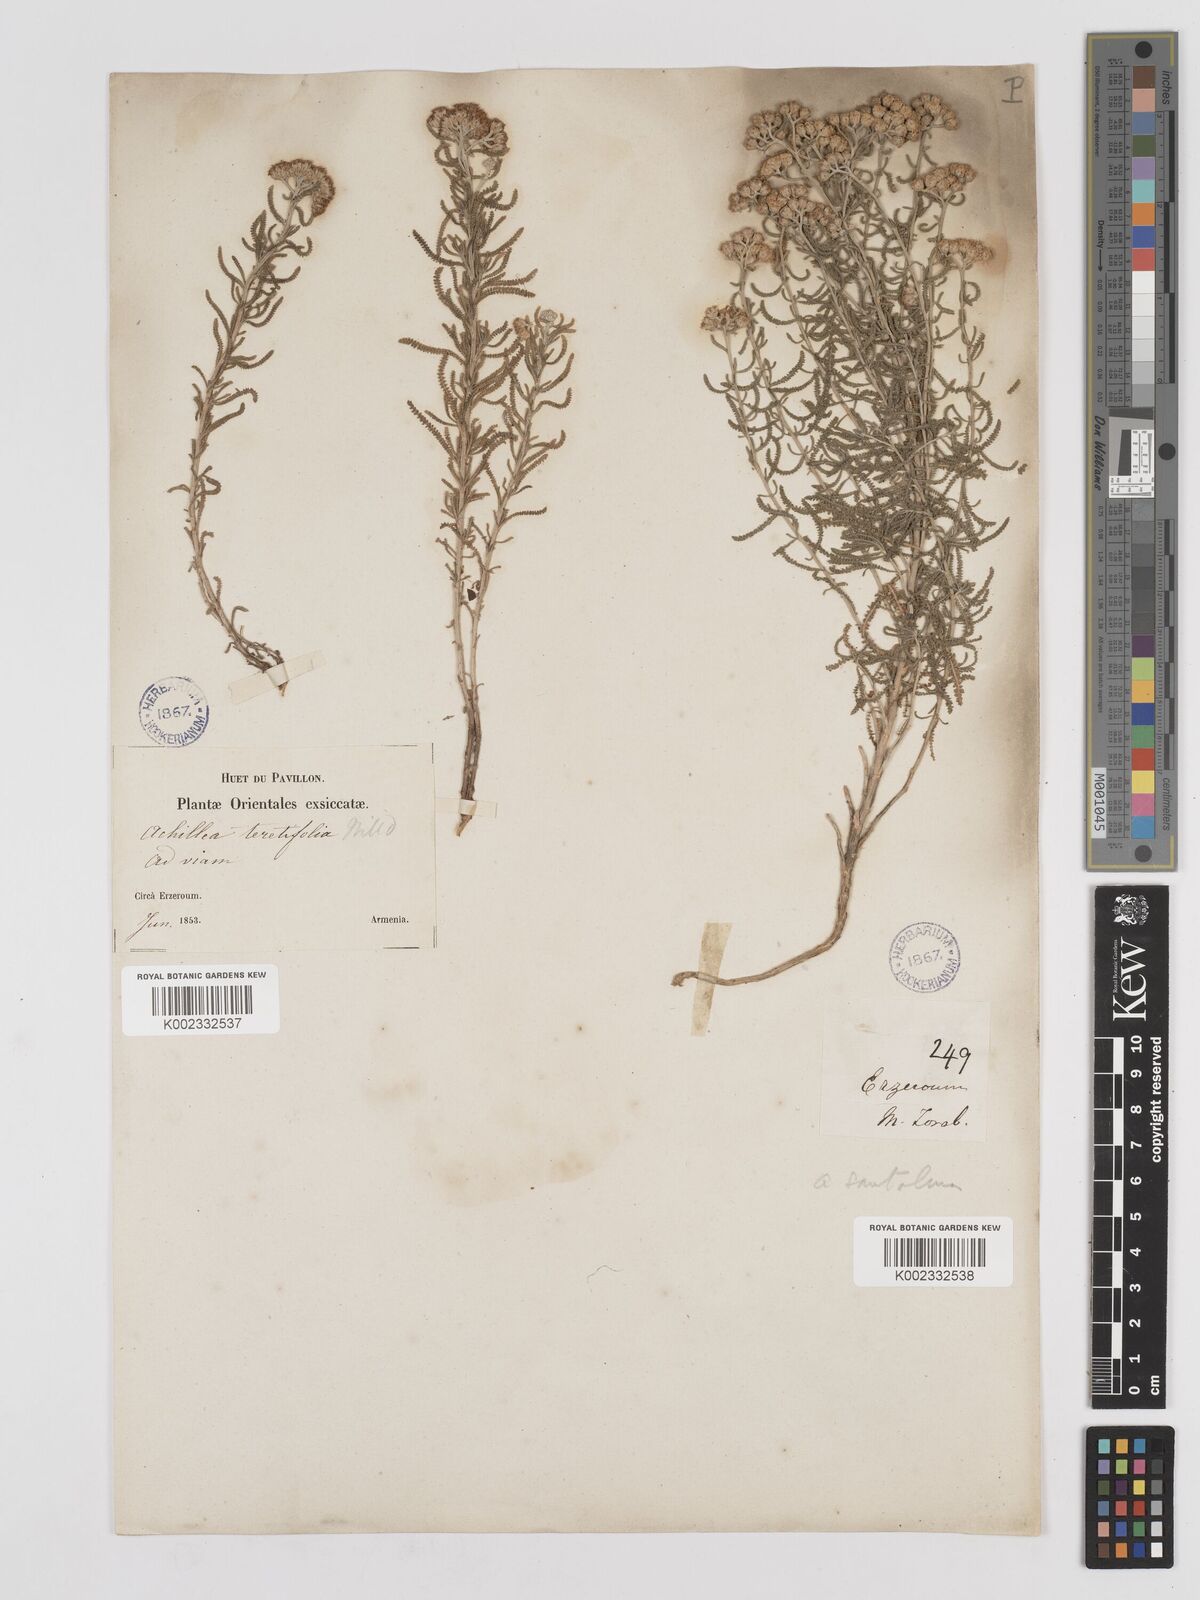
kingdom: Plantae
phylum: Tracheophyta
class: Magnoliopsida
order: Asterales
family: Asteraceae
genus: Achillea
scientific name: Achillea tenuifolia
